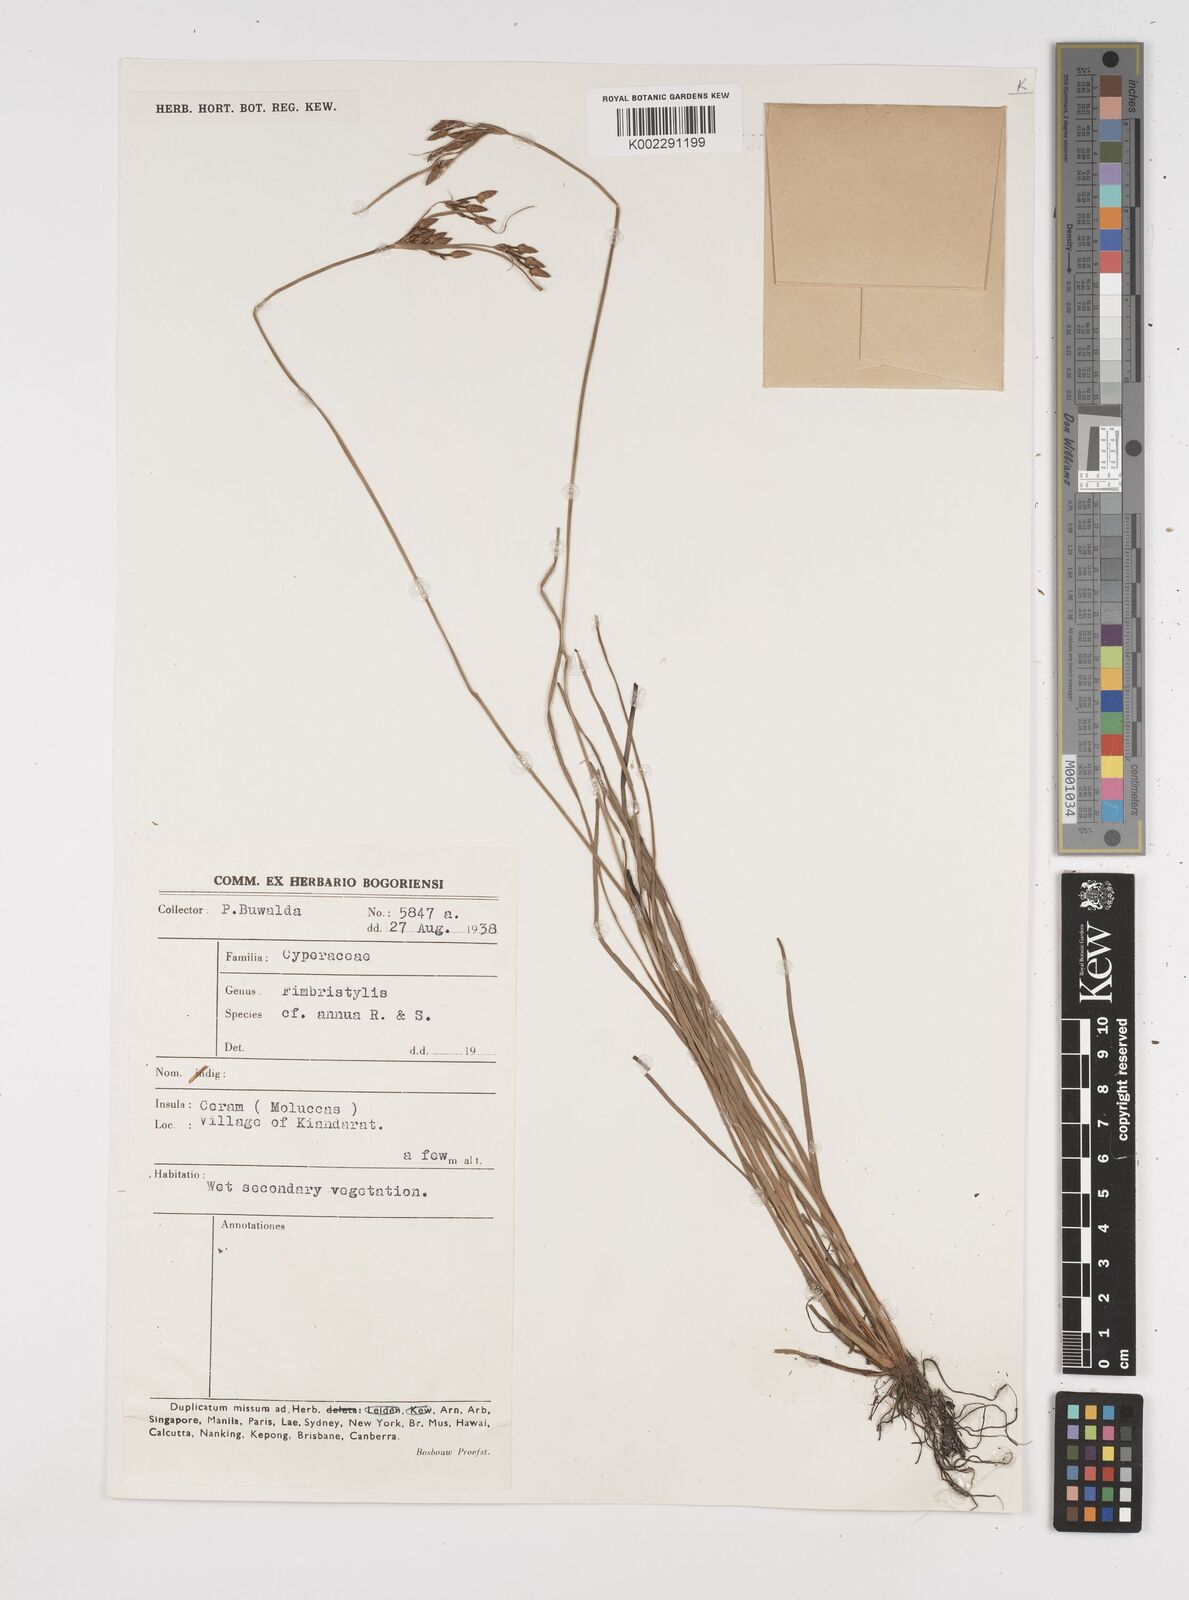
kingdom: Plantae
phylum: Tracheophyta
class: Liliopsida
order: Poales
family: Cyperaceae
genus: Fimbristylis
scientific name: Fimbristylis dichotoma
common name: Forked fimbry
